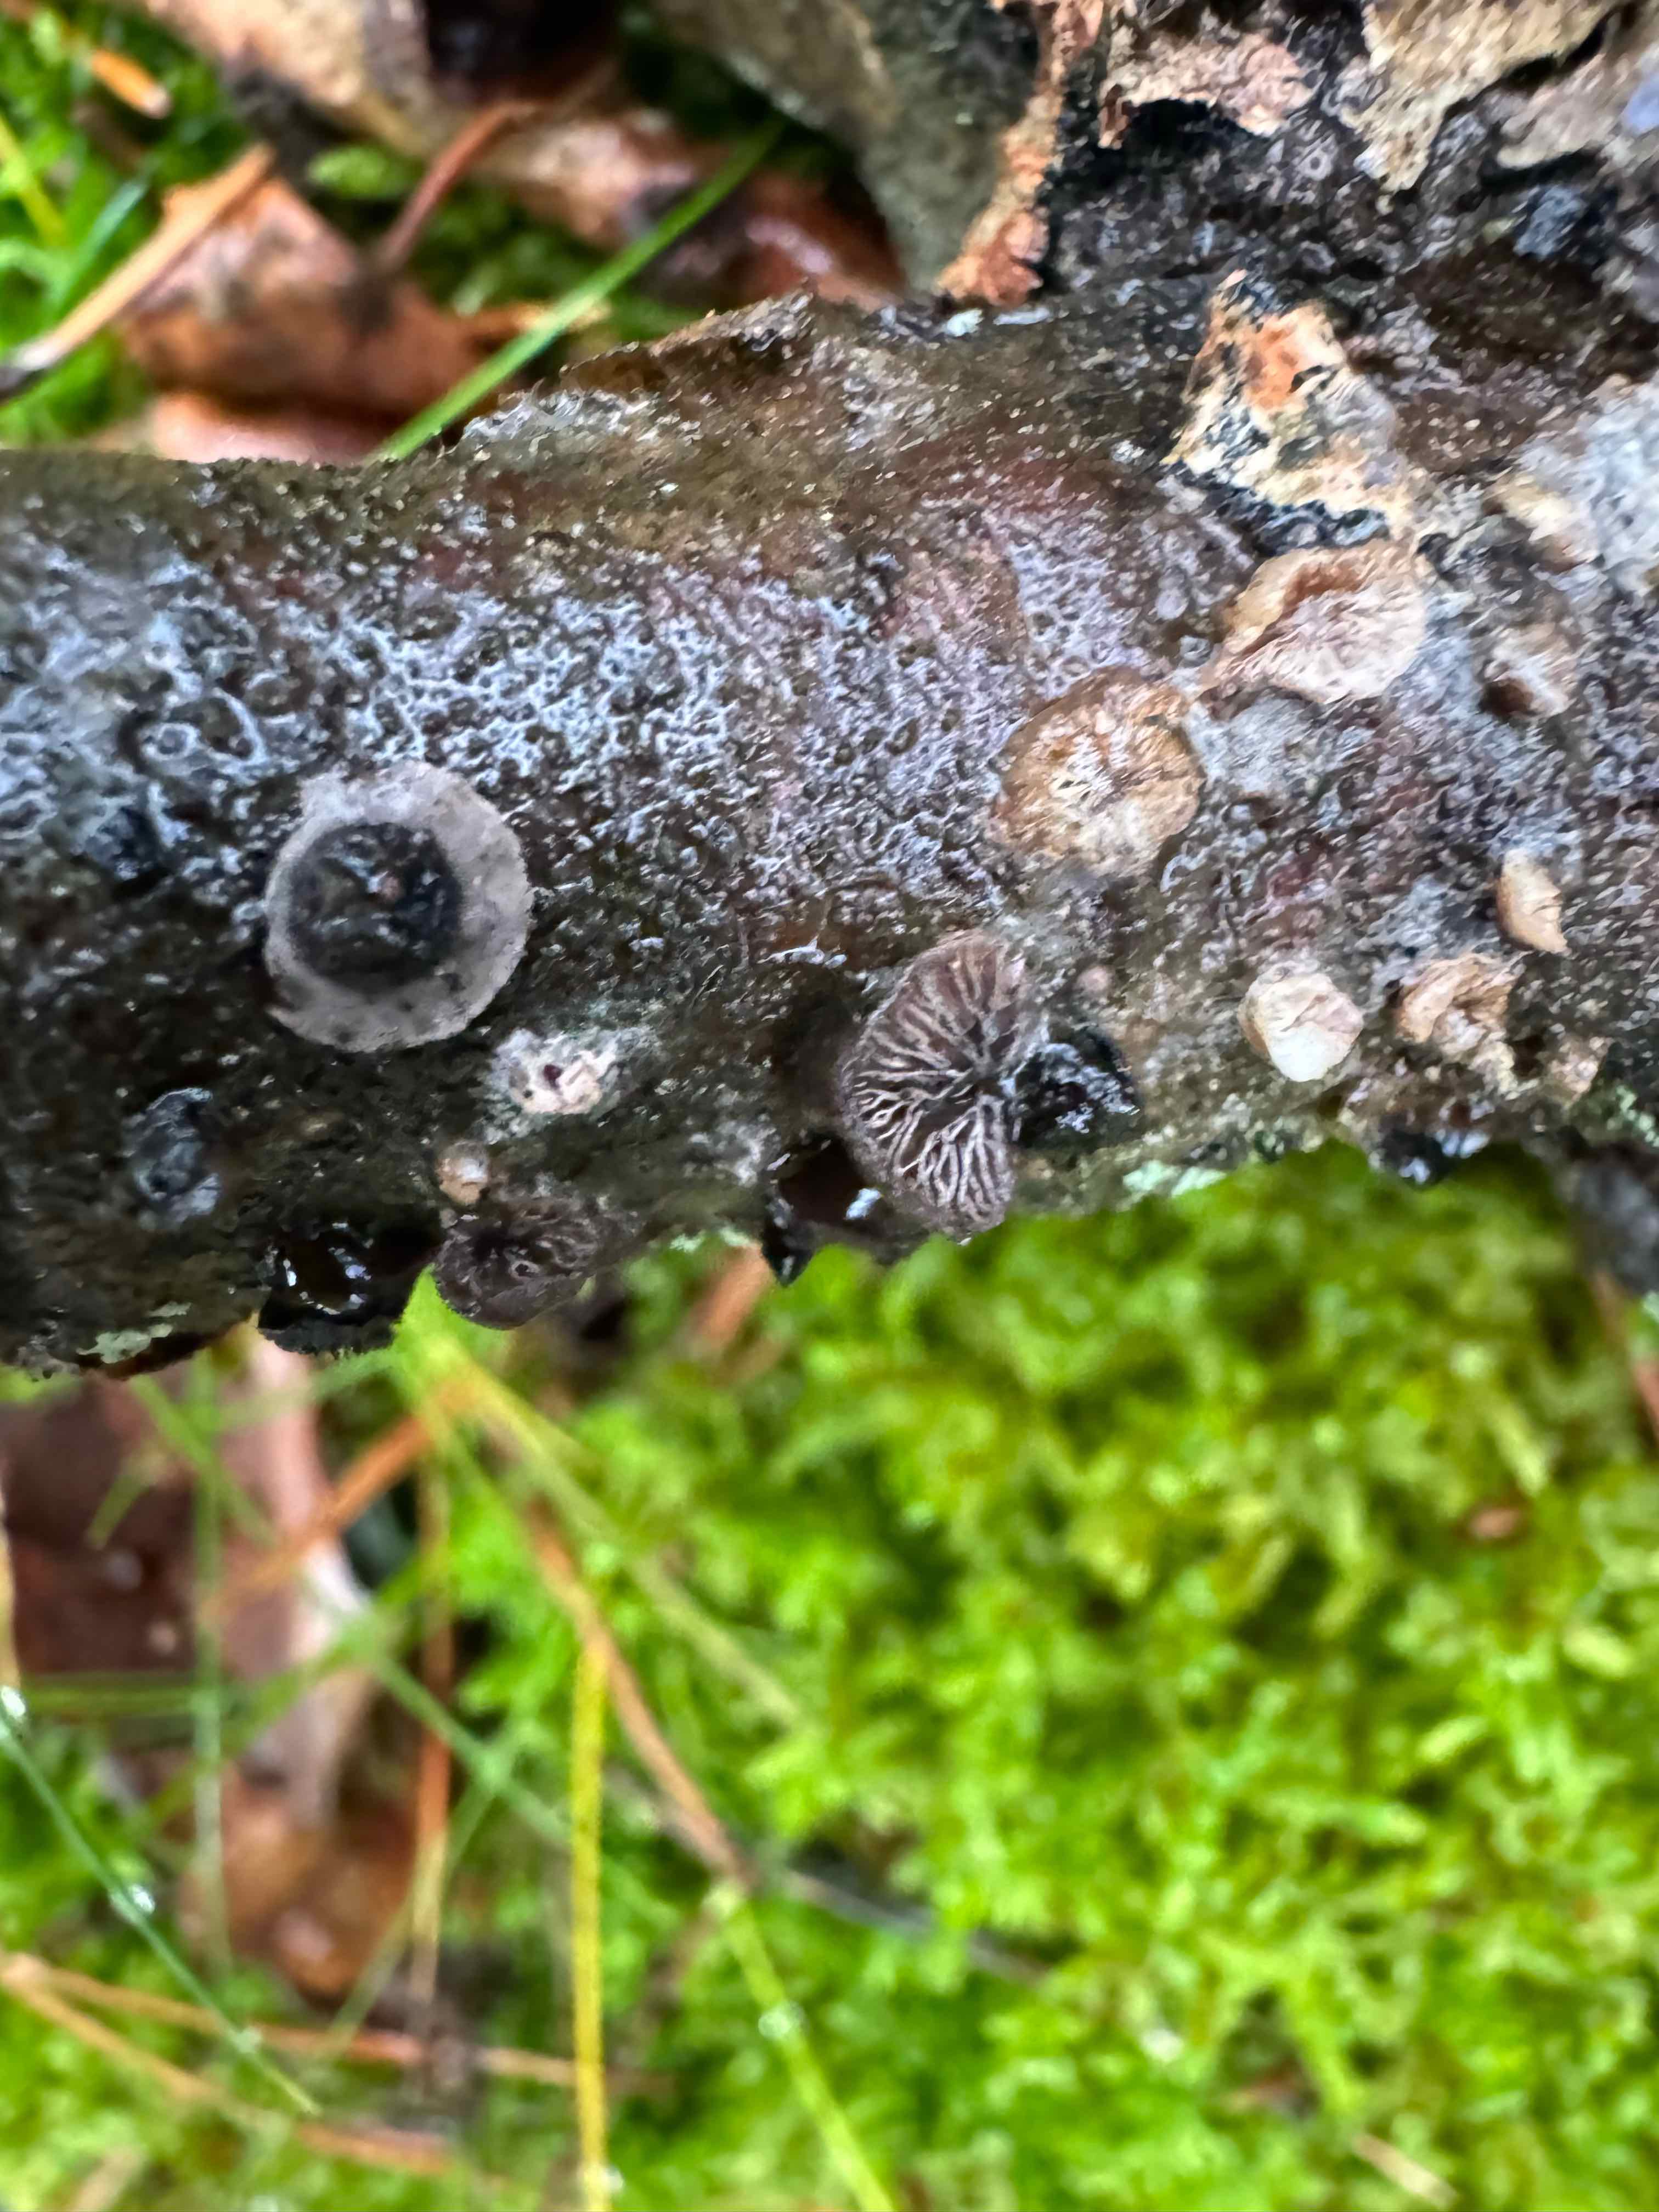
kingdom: Fungi
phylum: Basidiomycota
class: Agaricomycetes
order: Agaricales
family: Pleurotaceae
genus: Resupinatus
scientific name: Resupinatus trichotis
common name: mørkfiltet barkhat
